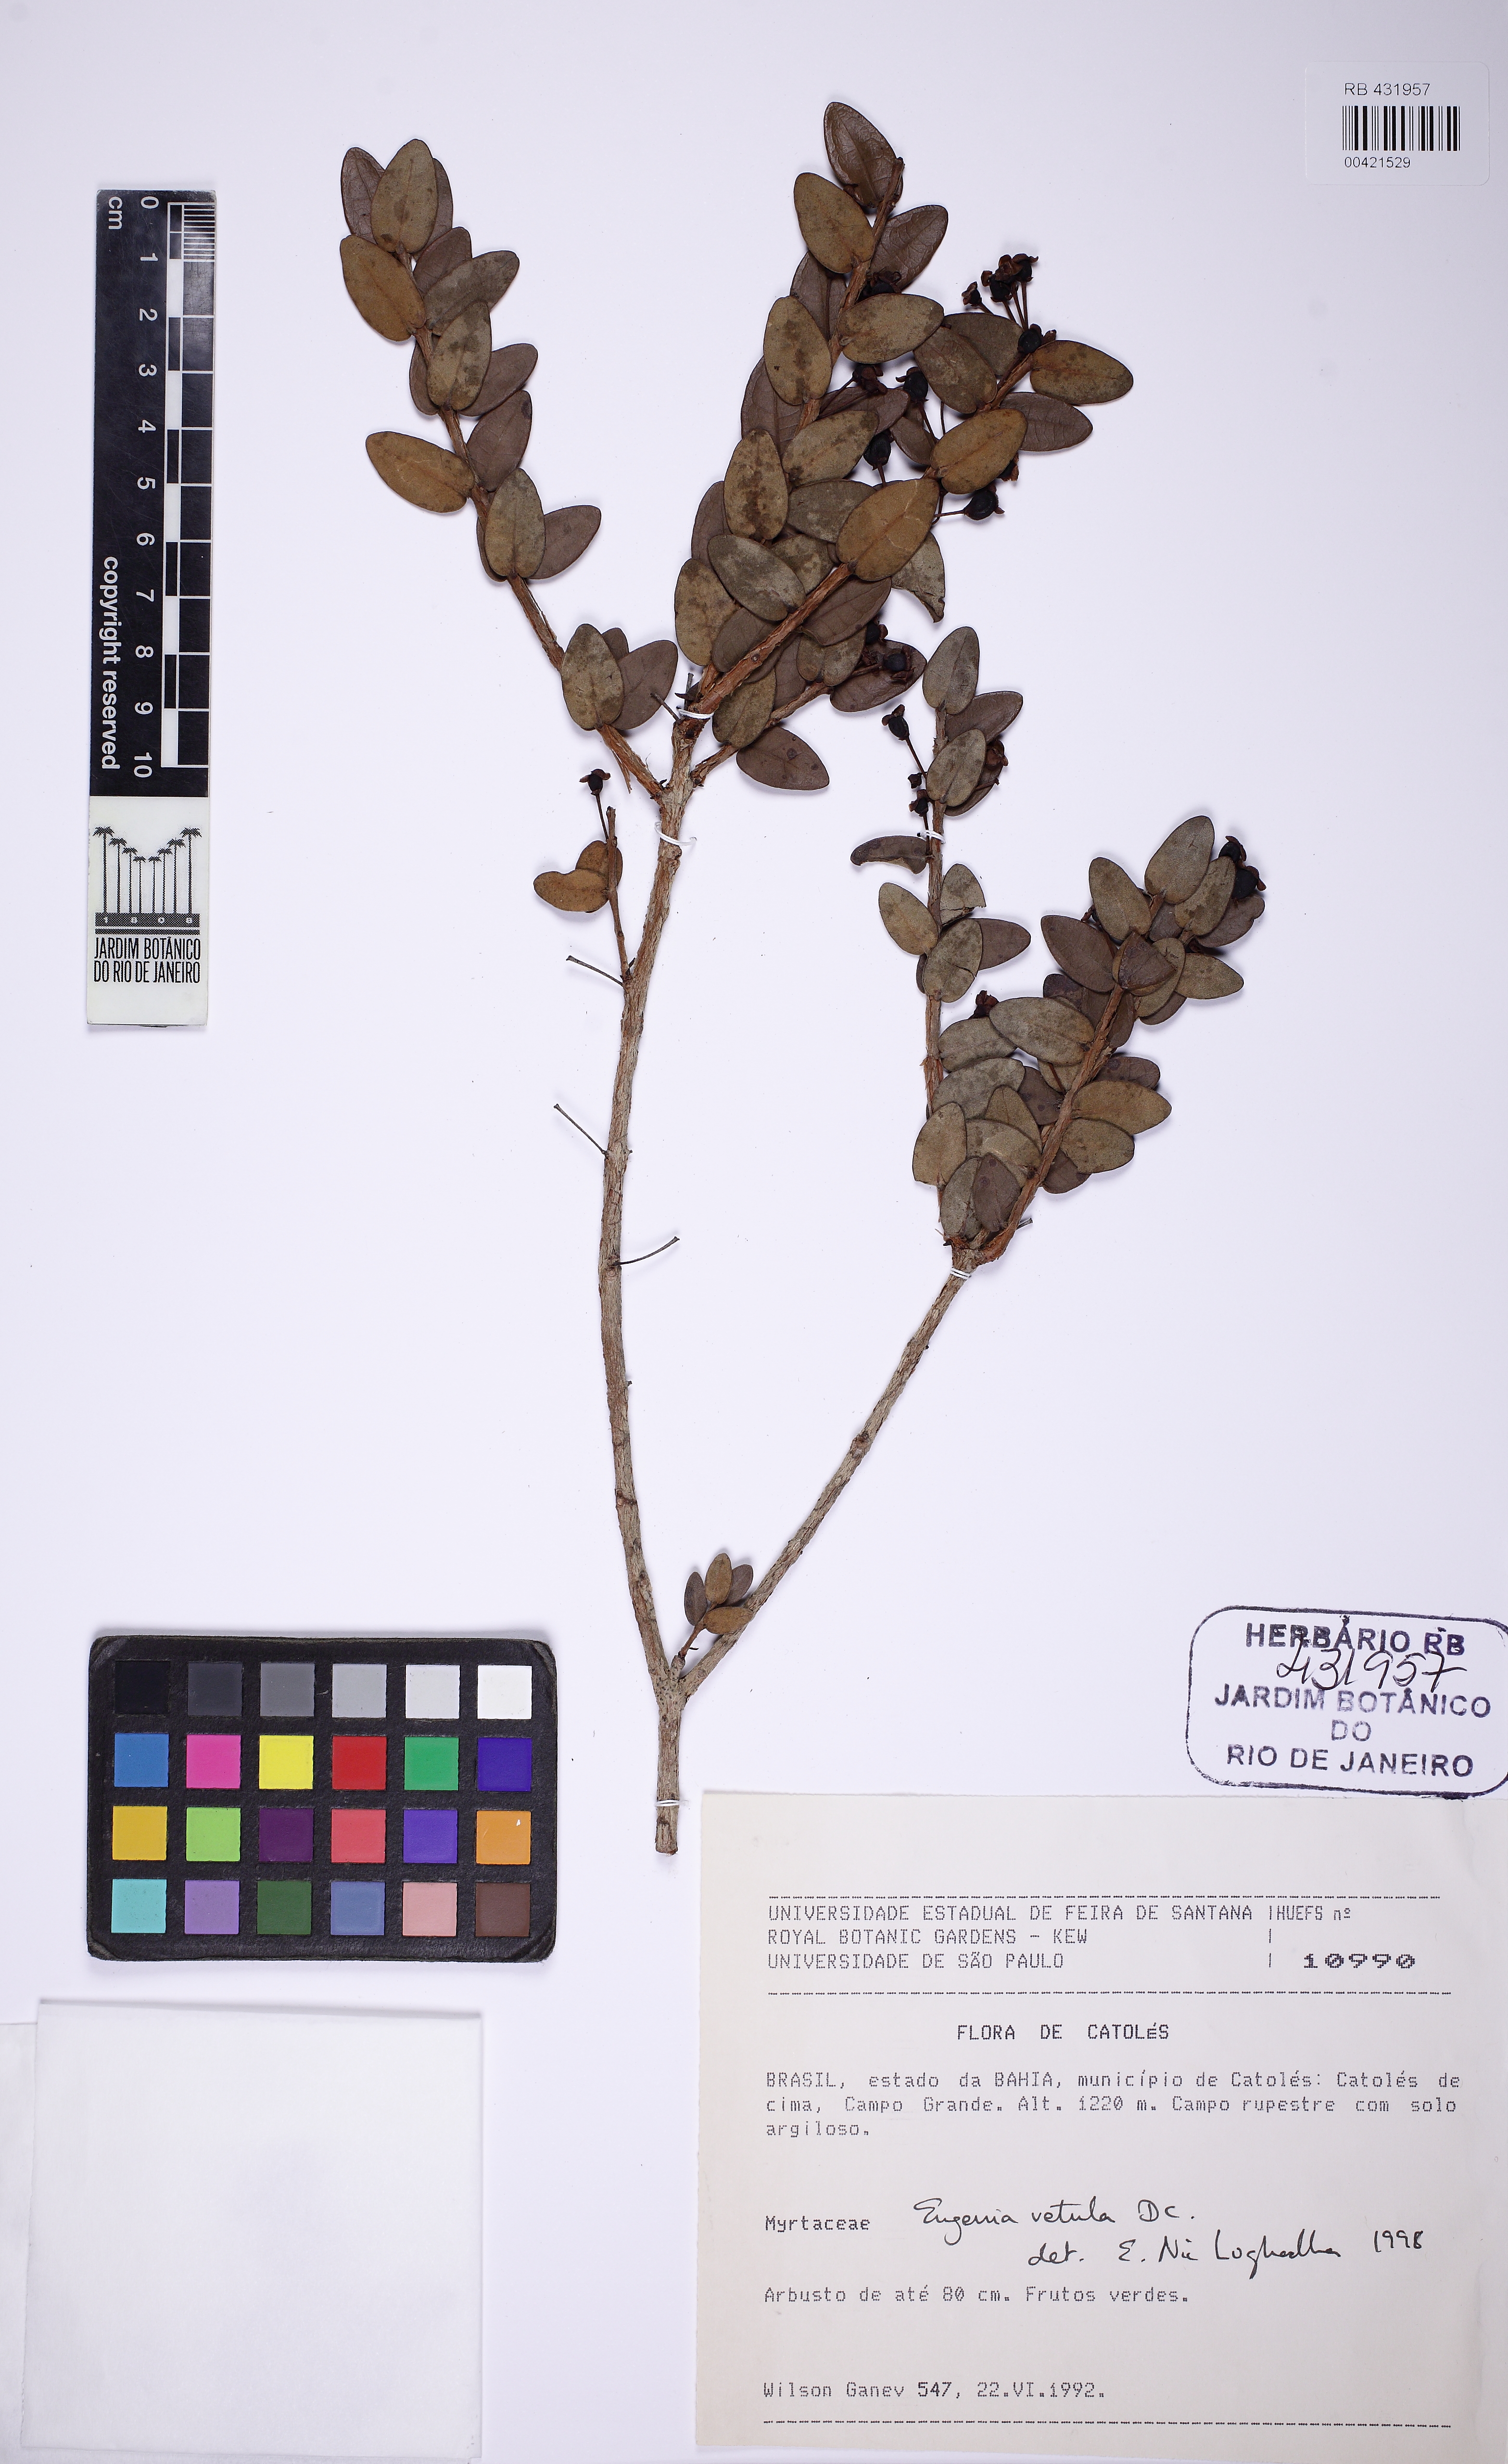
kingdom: Plantae
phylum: Tracheophyta
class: Magnoliopsida
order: Myrtales
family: Myrtaceae
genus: Eugenia
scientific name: Eugenia vetula
